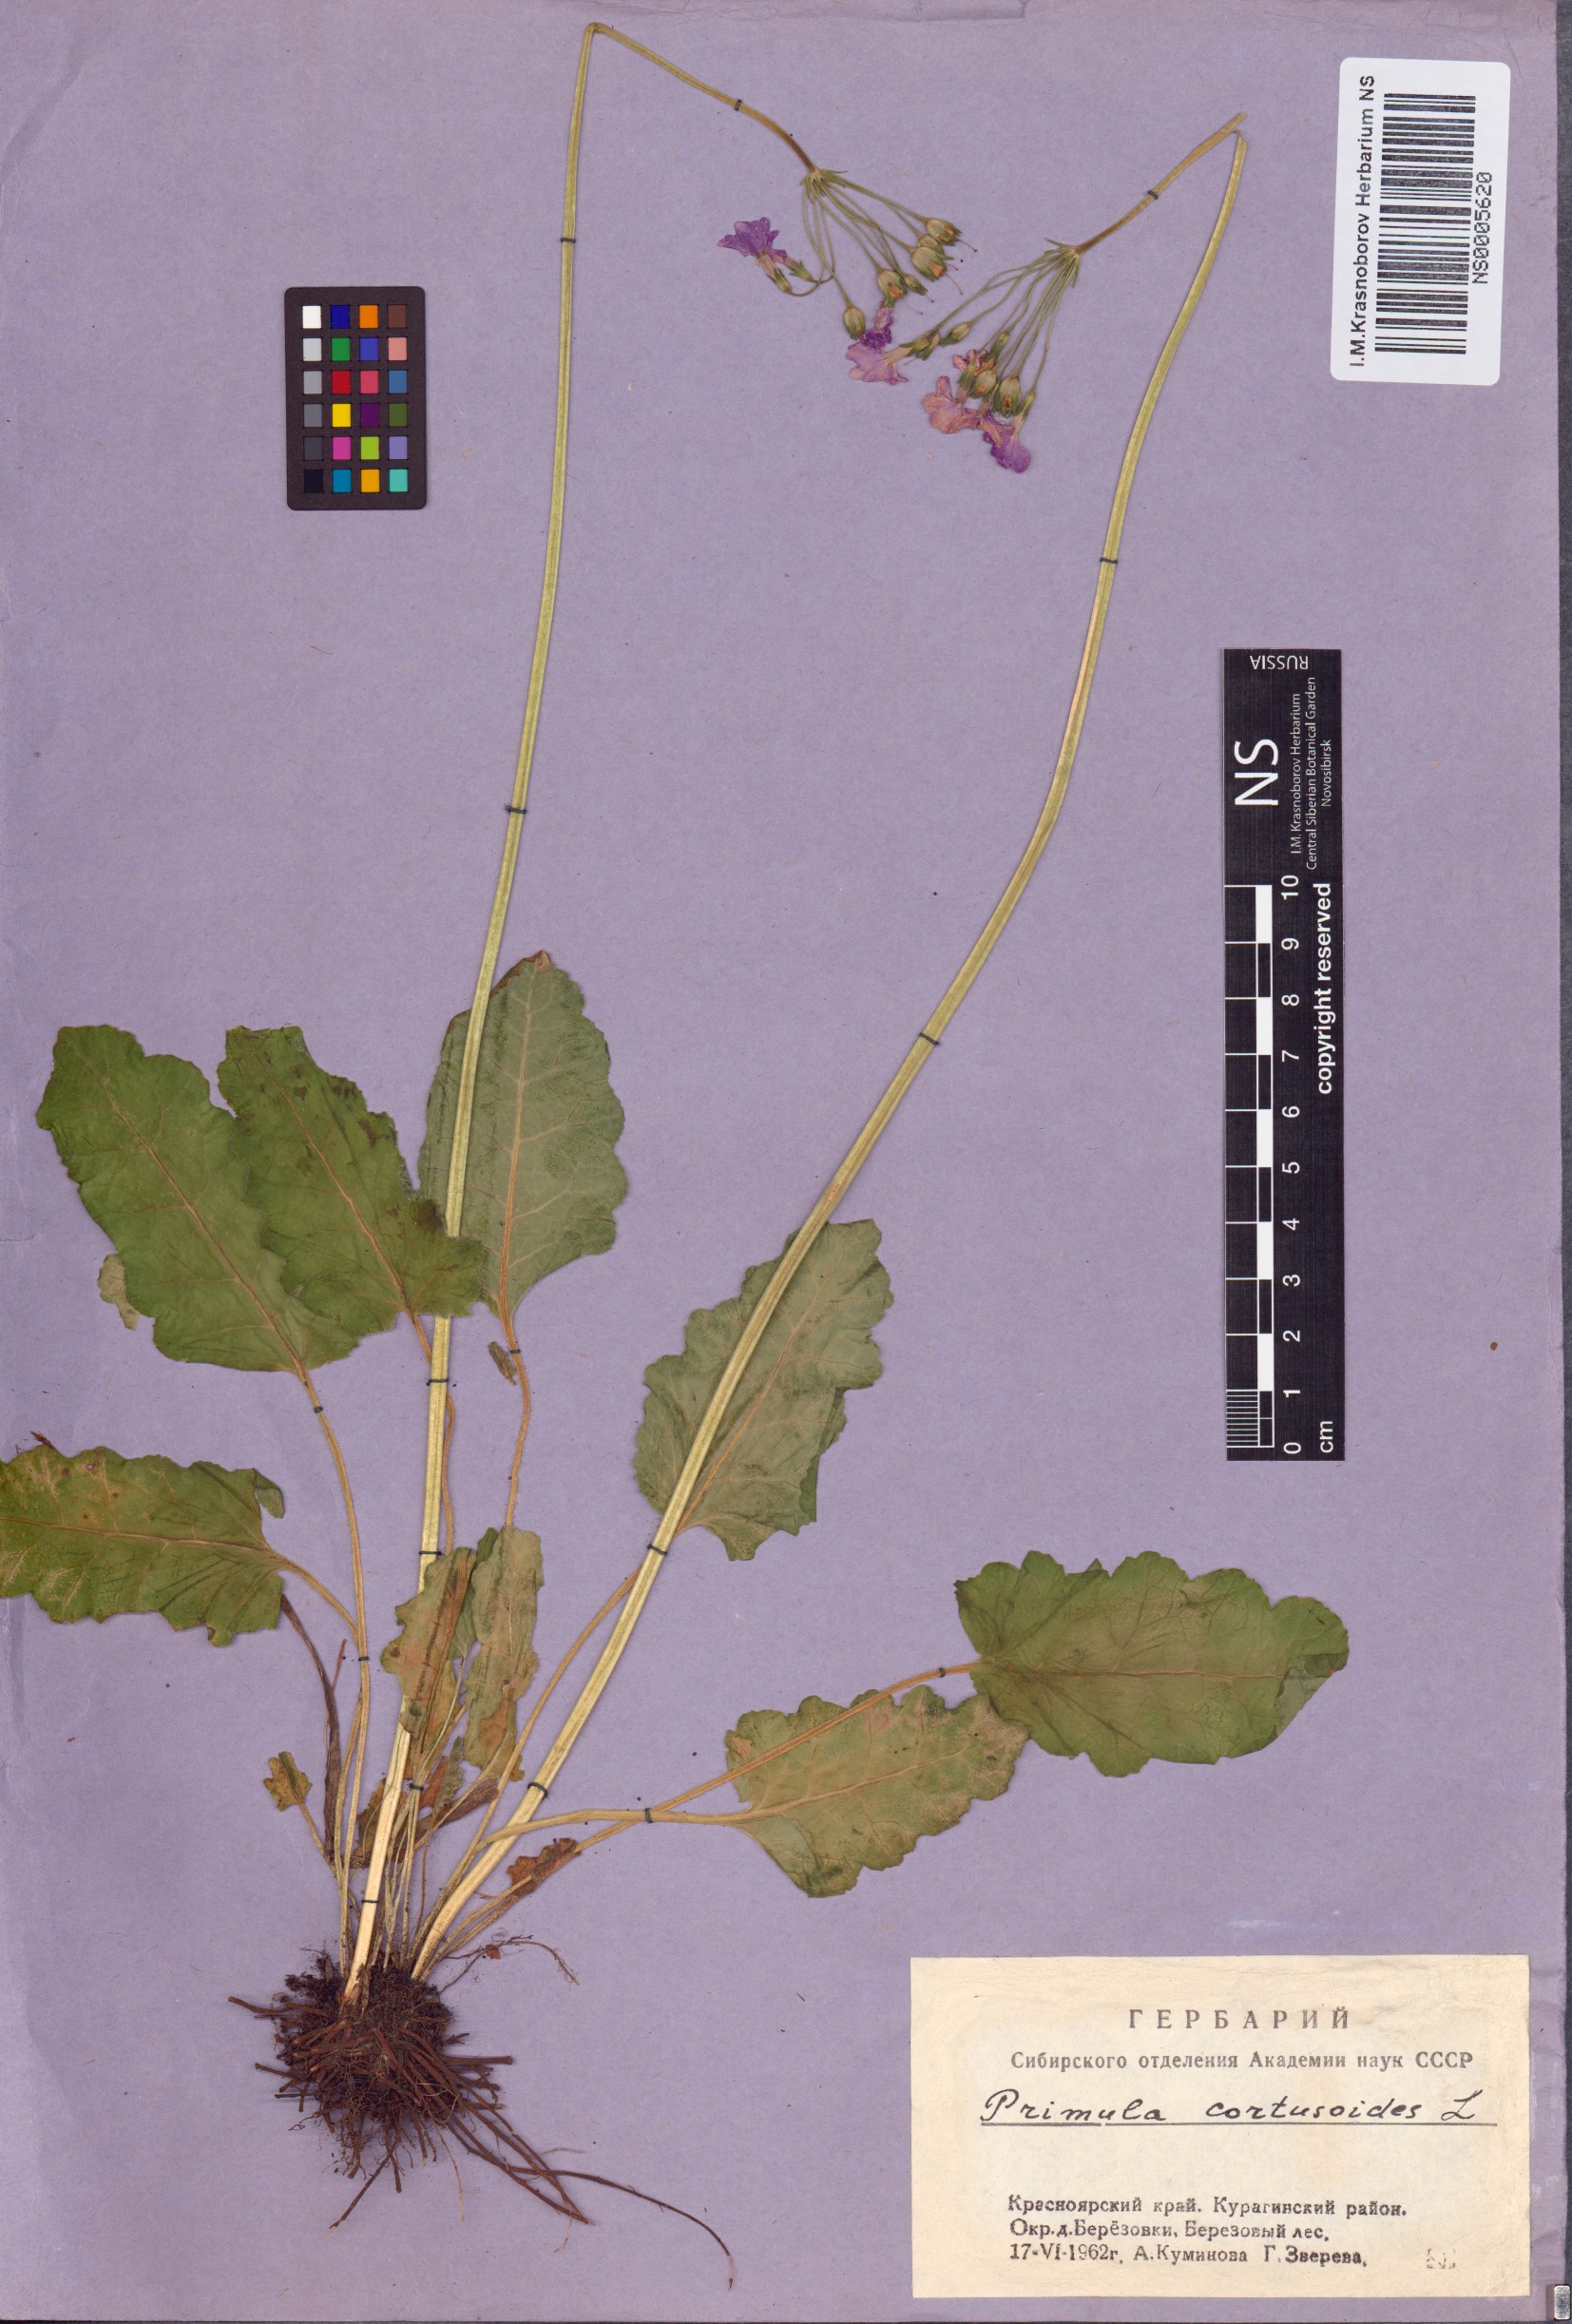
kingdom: Plantae
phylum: Tracheophyta
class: Magnoliopsida
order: Ericales
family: Primulaceae
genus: Primula
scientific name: Primula cortusoides
